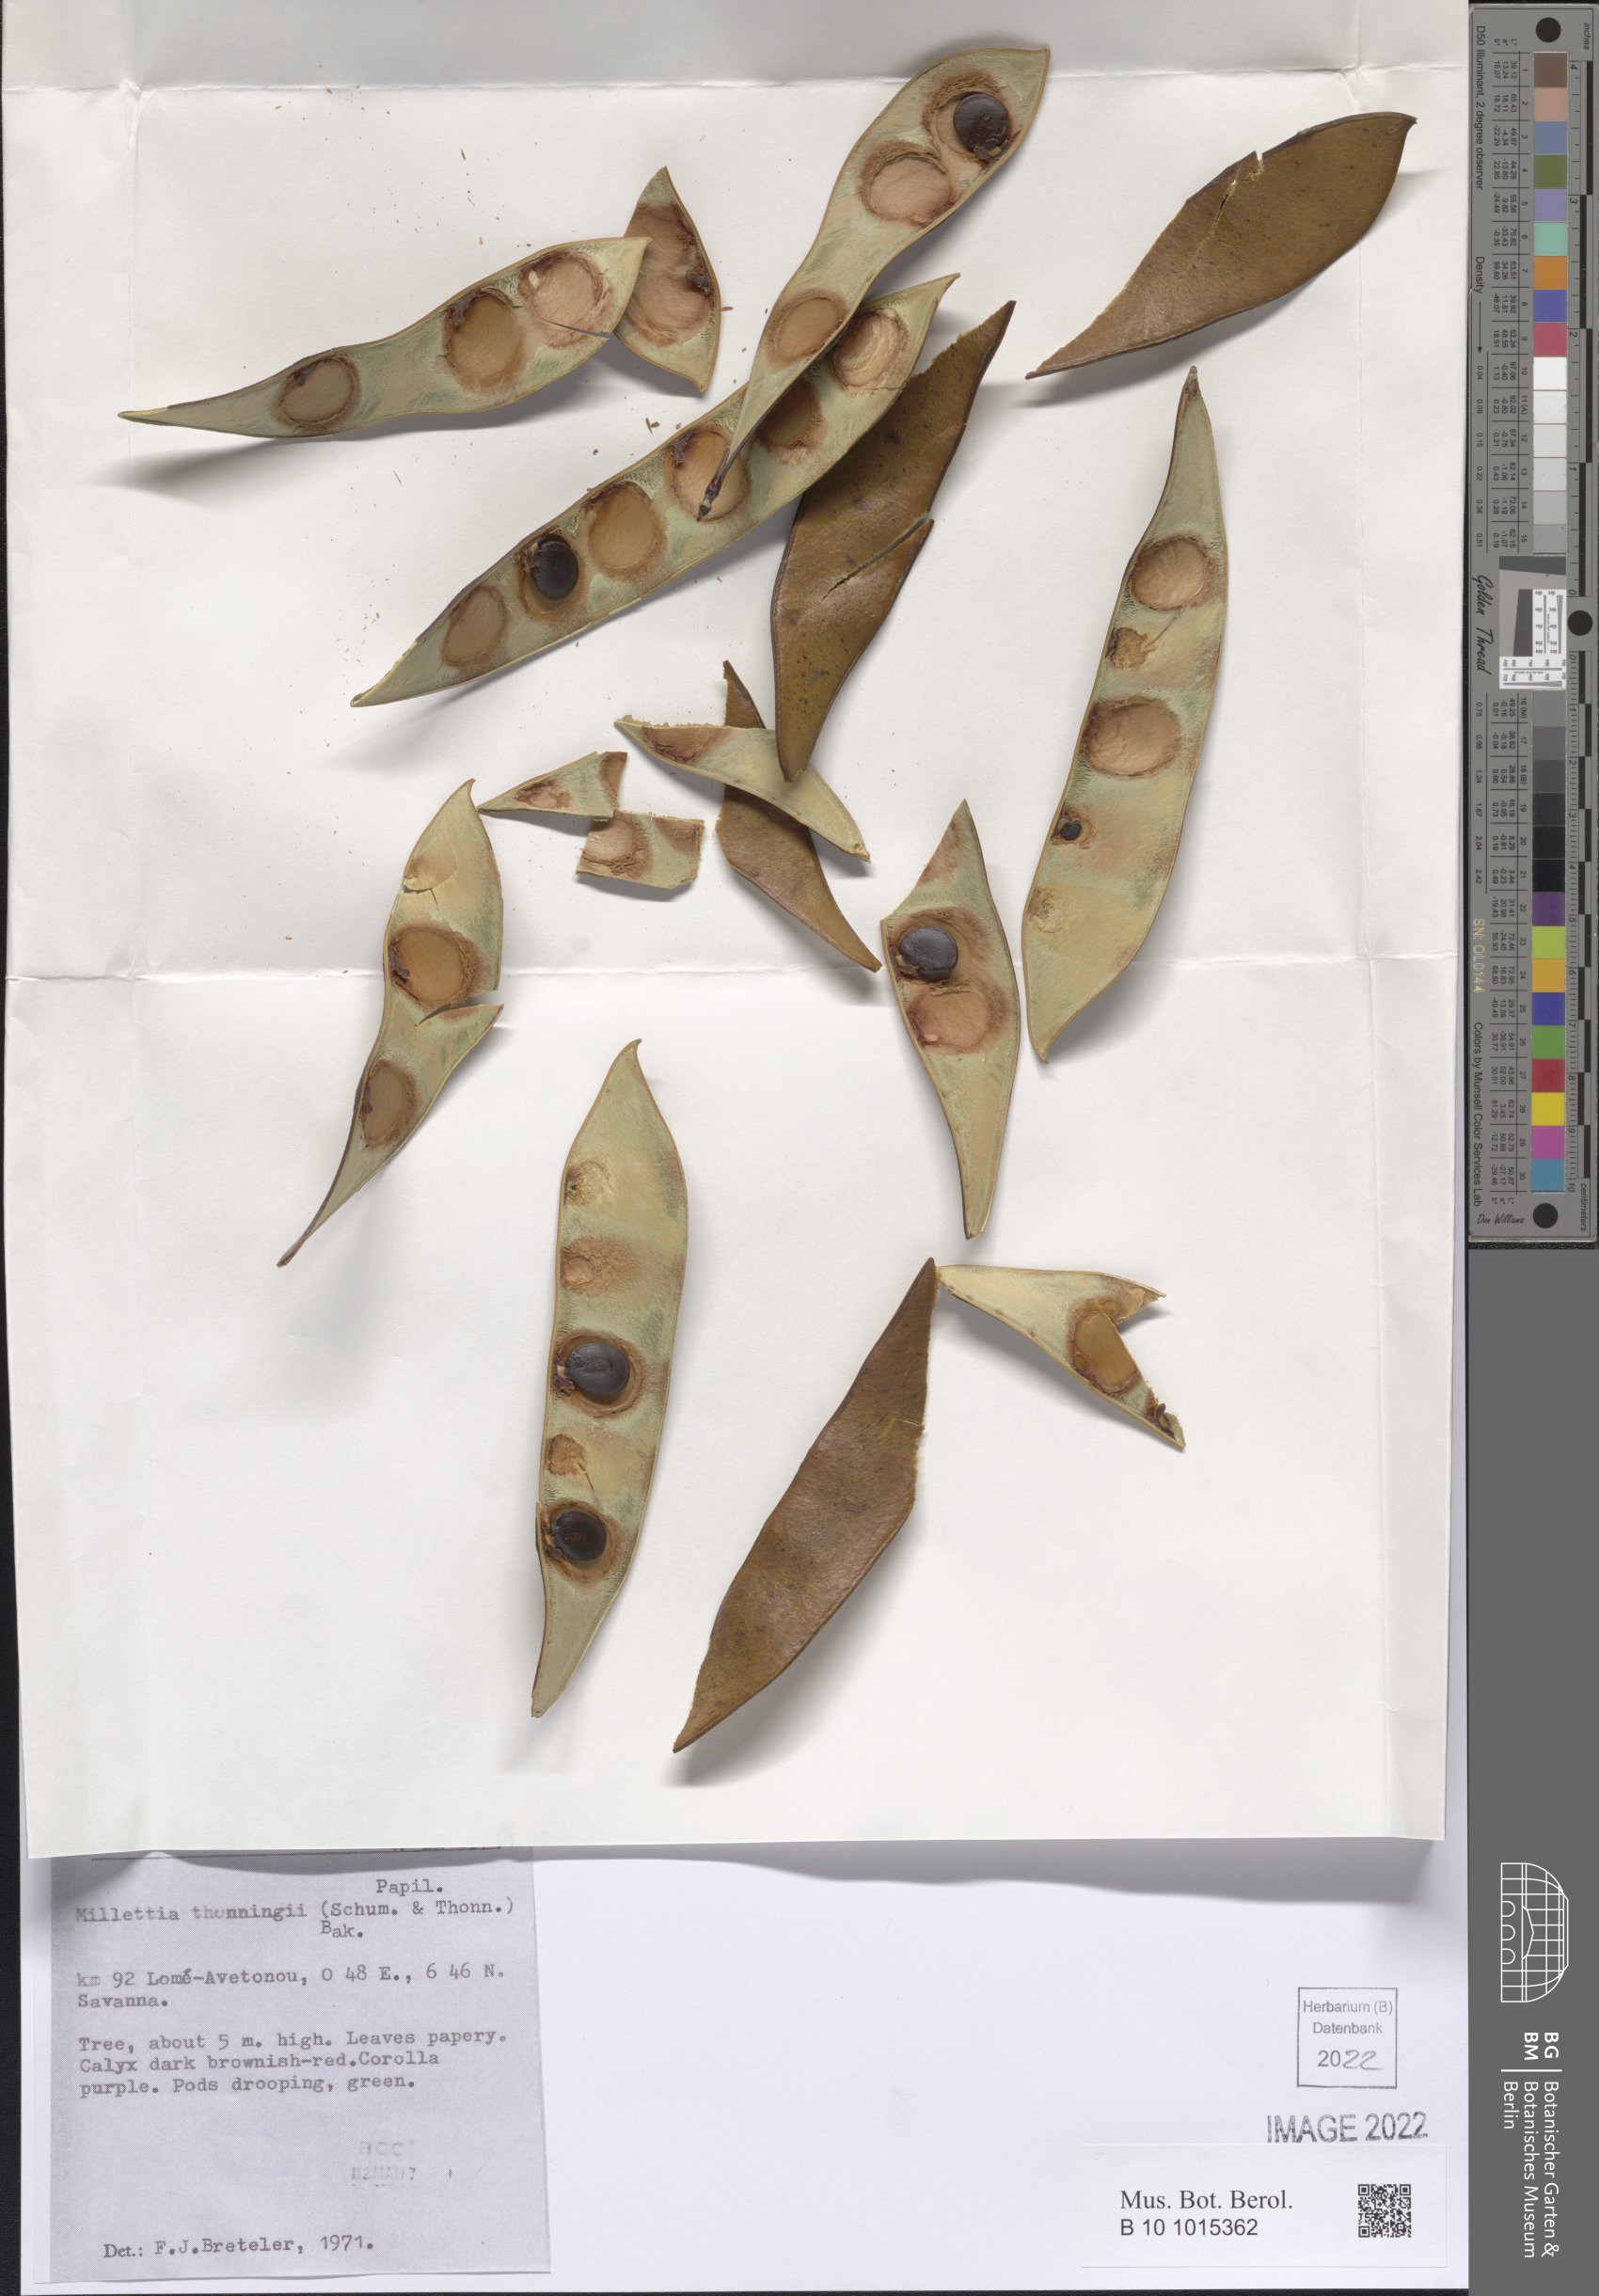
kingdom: Plantae
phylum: Tracheophyta
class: Magnoliopsida
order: Fabales
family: Fabaceae
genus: Millettia
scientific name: Millettia thonningii
